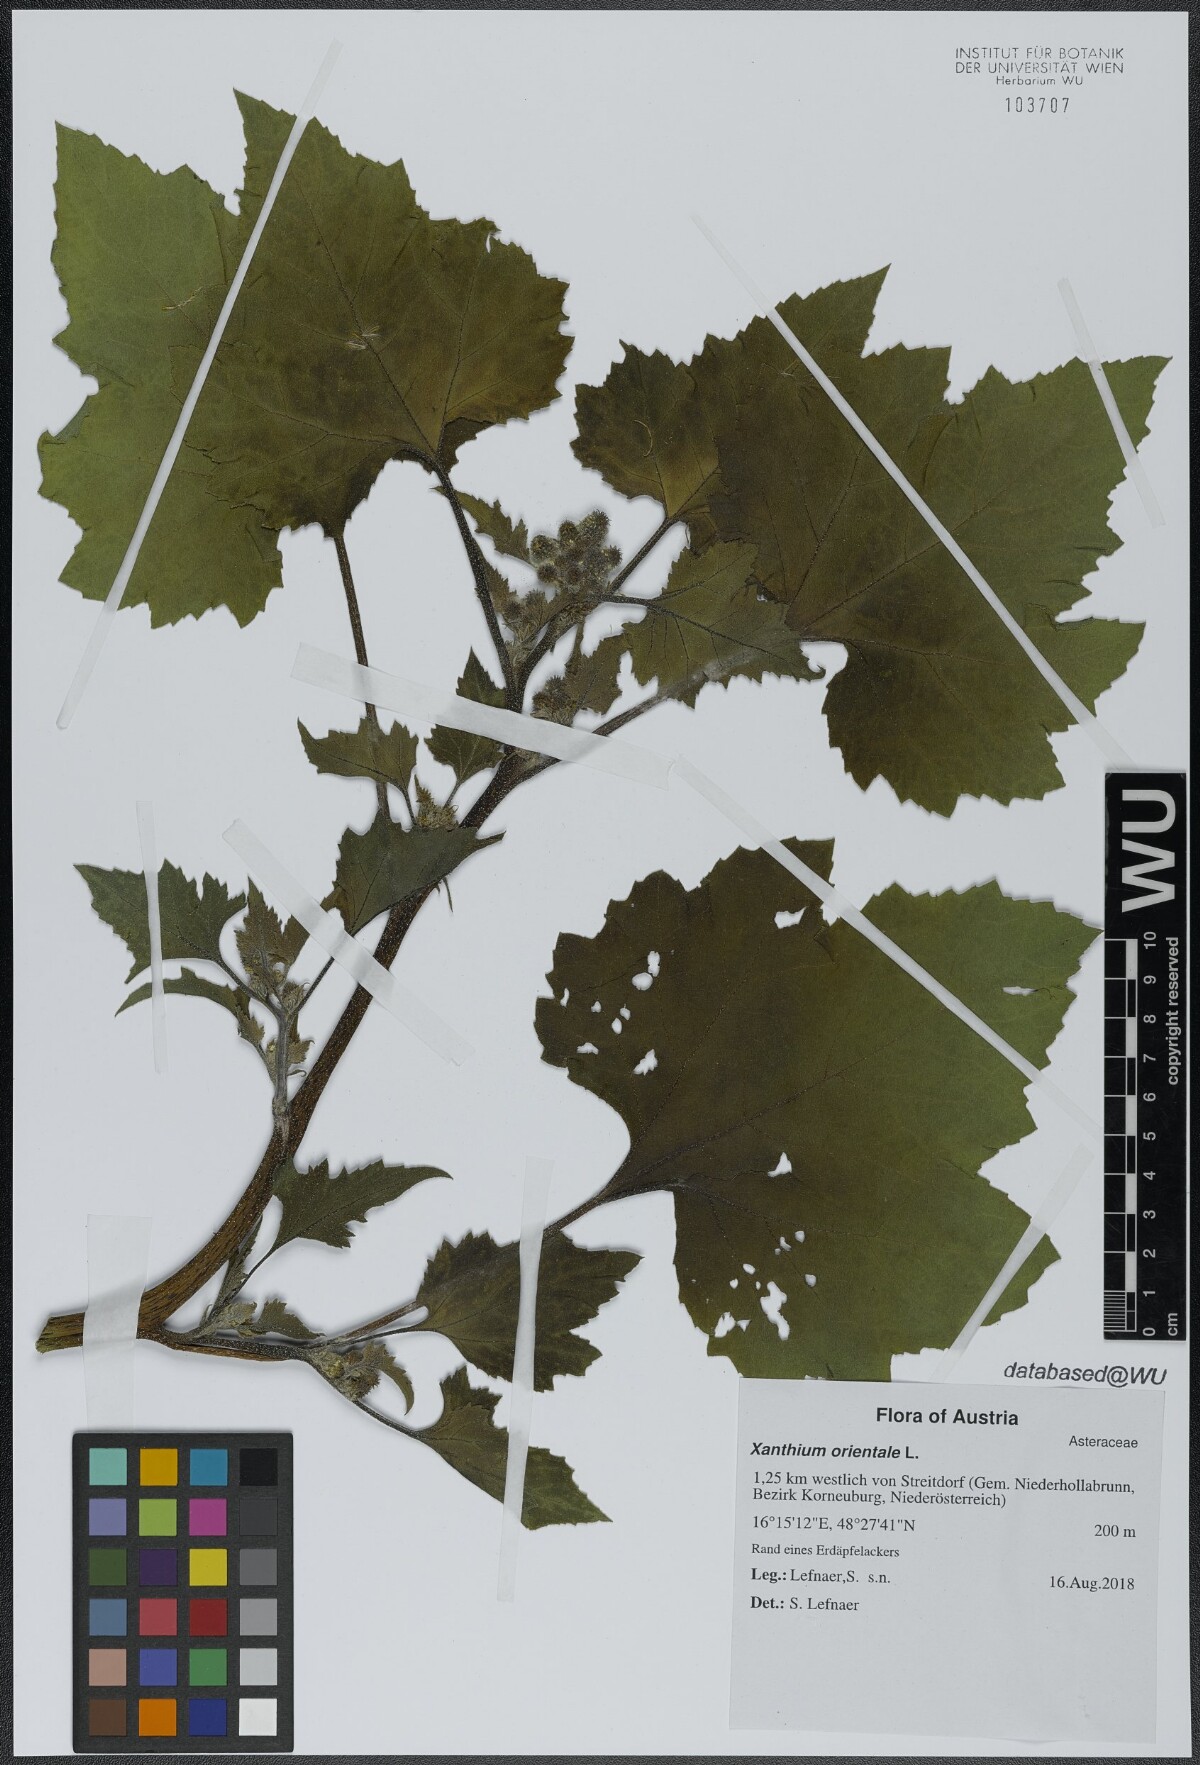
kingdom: Plantae
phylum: Tracheophyta
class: Magnoliopsida
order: Asterales
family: Asteraceae
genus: Xanthium
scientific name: Xanthium orientale
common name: Californian burr
